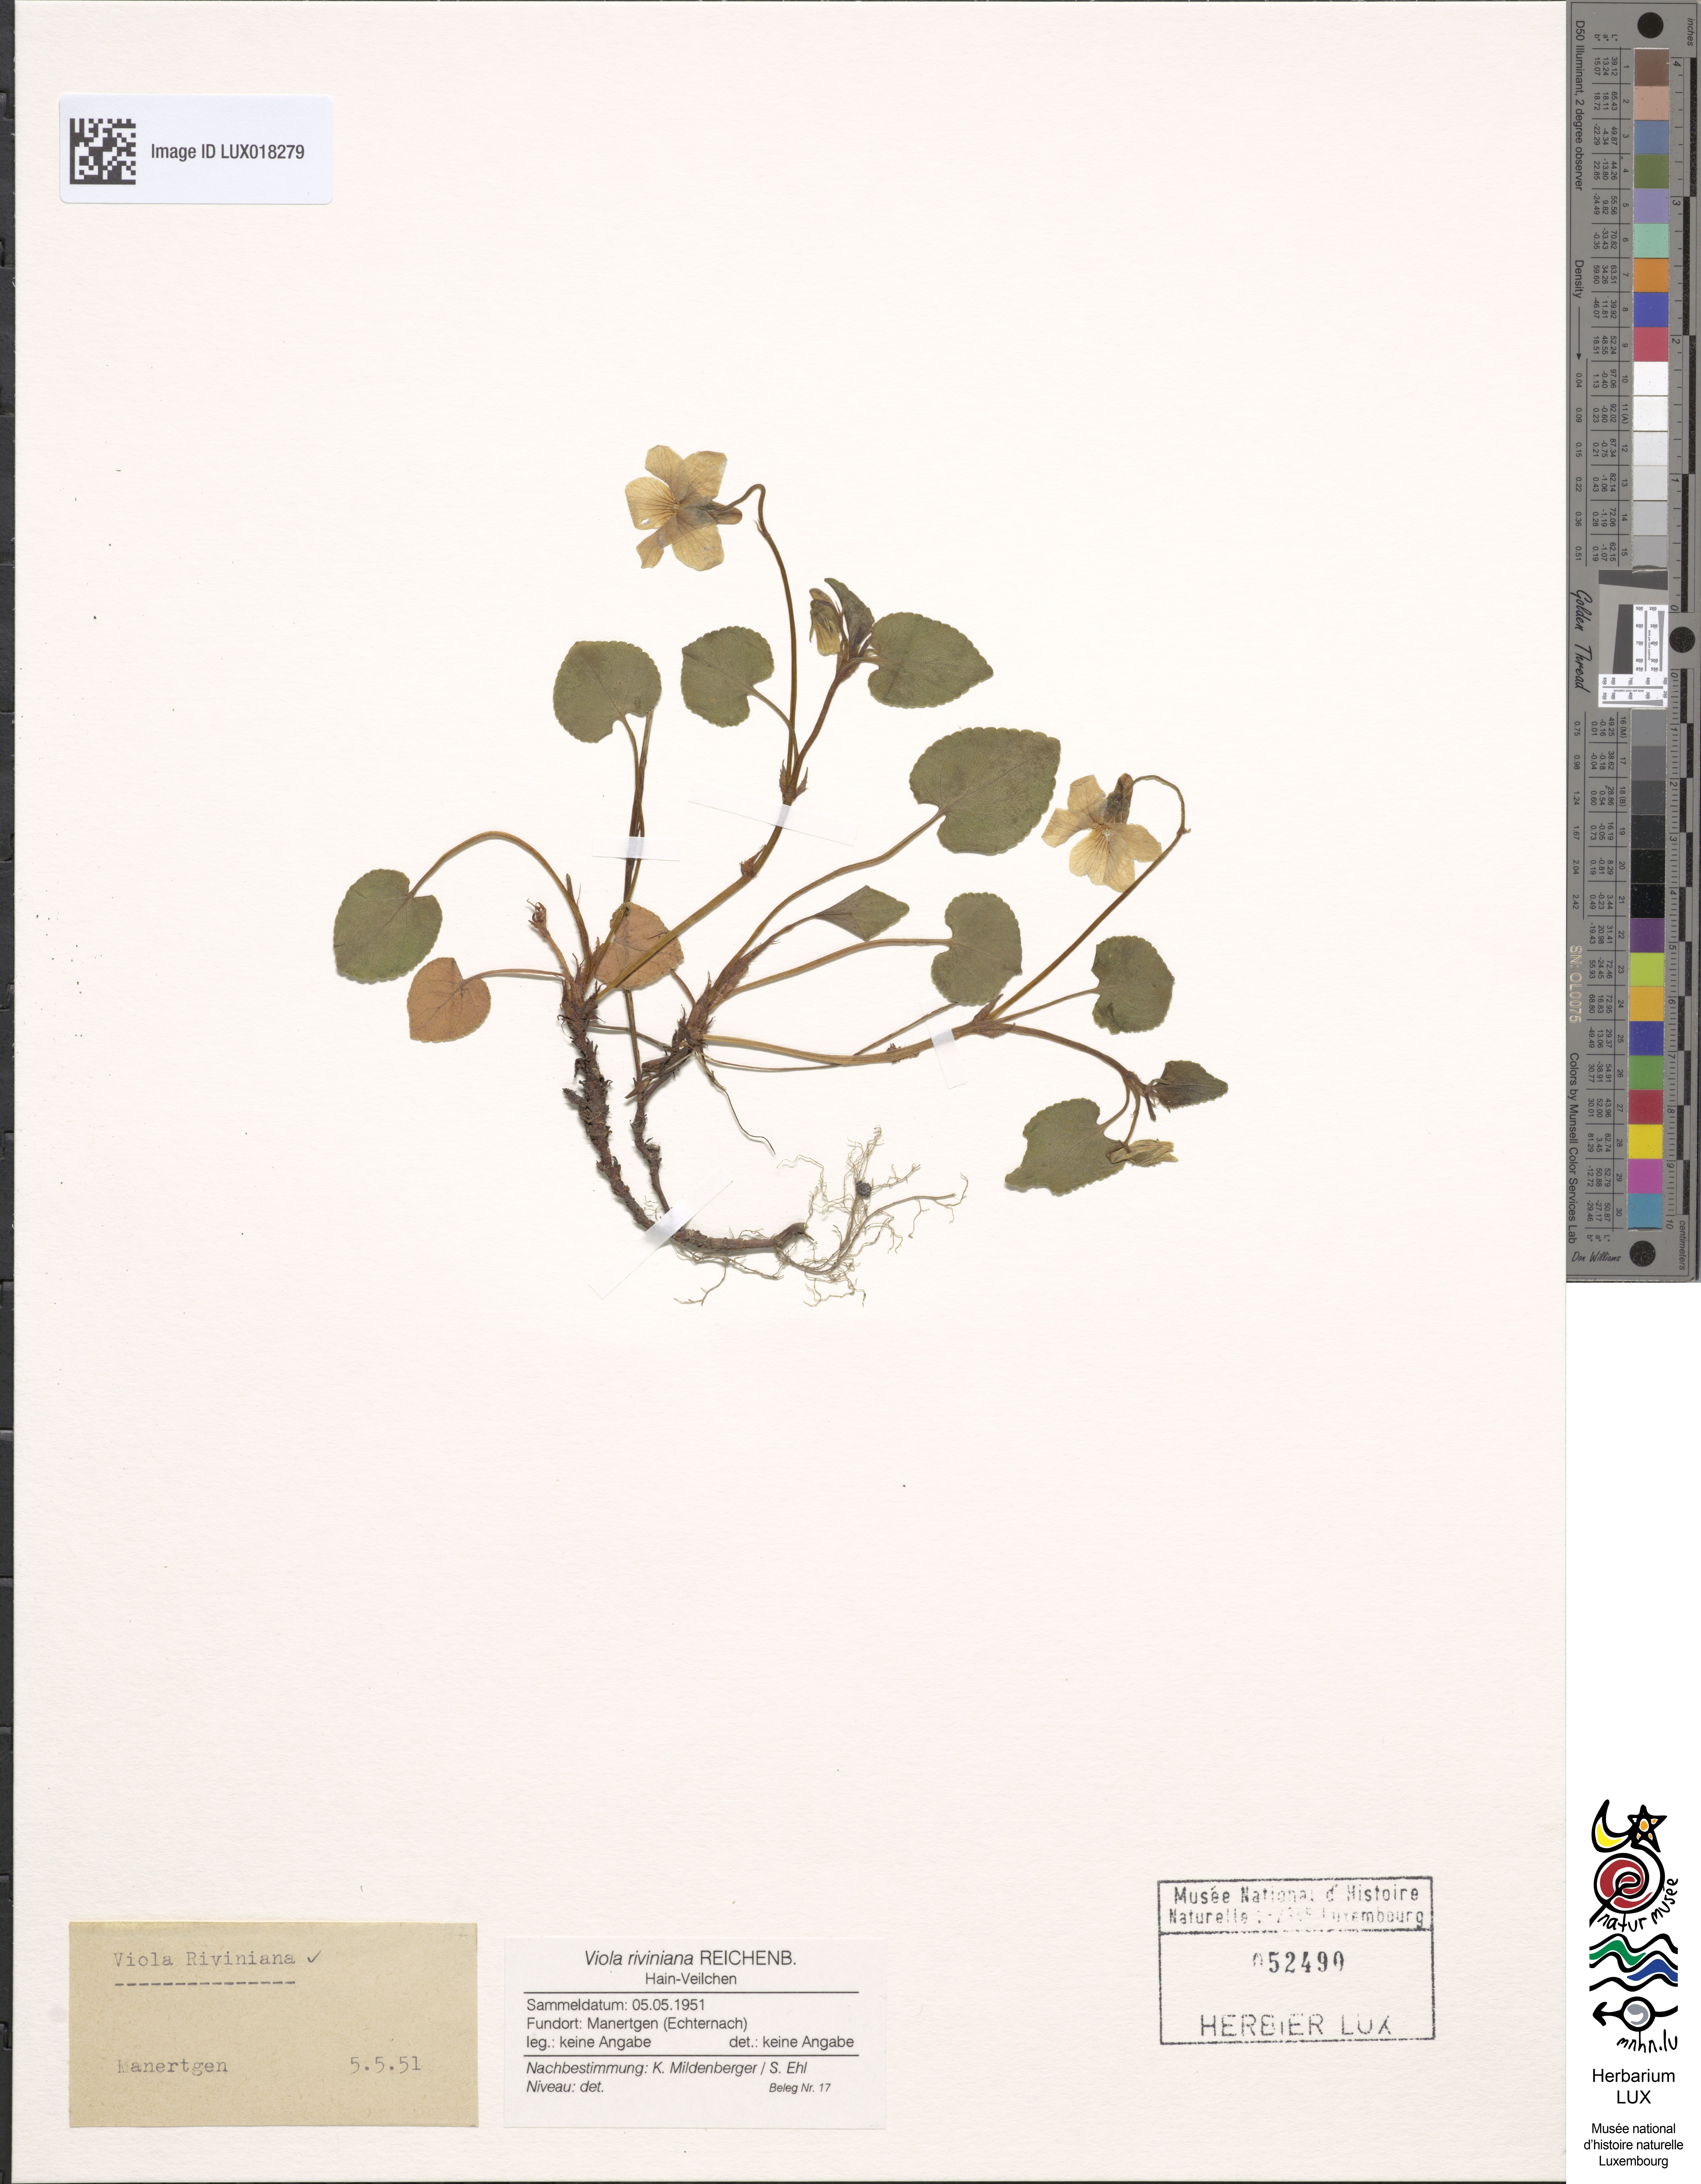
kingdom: Plantae
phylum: Tracheophyta
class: Magnoliopsida
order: Malpighiales
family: Violaceae
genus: Viola
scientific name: Viola riviniana
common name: Common dog-violet
